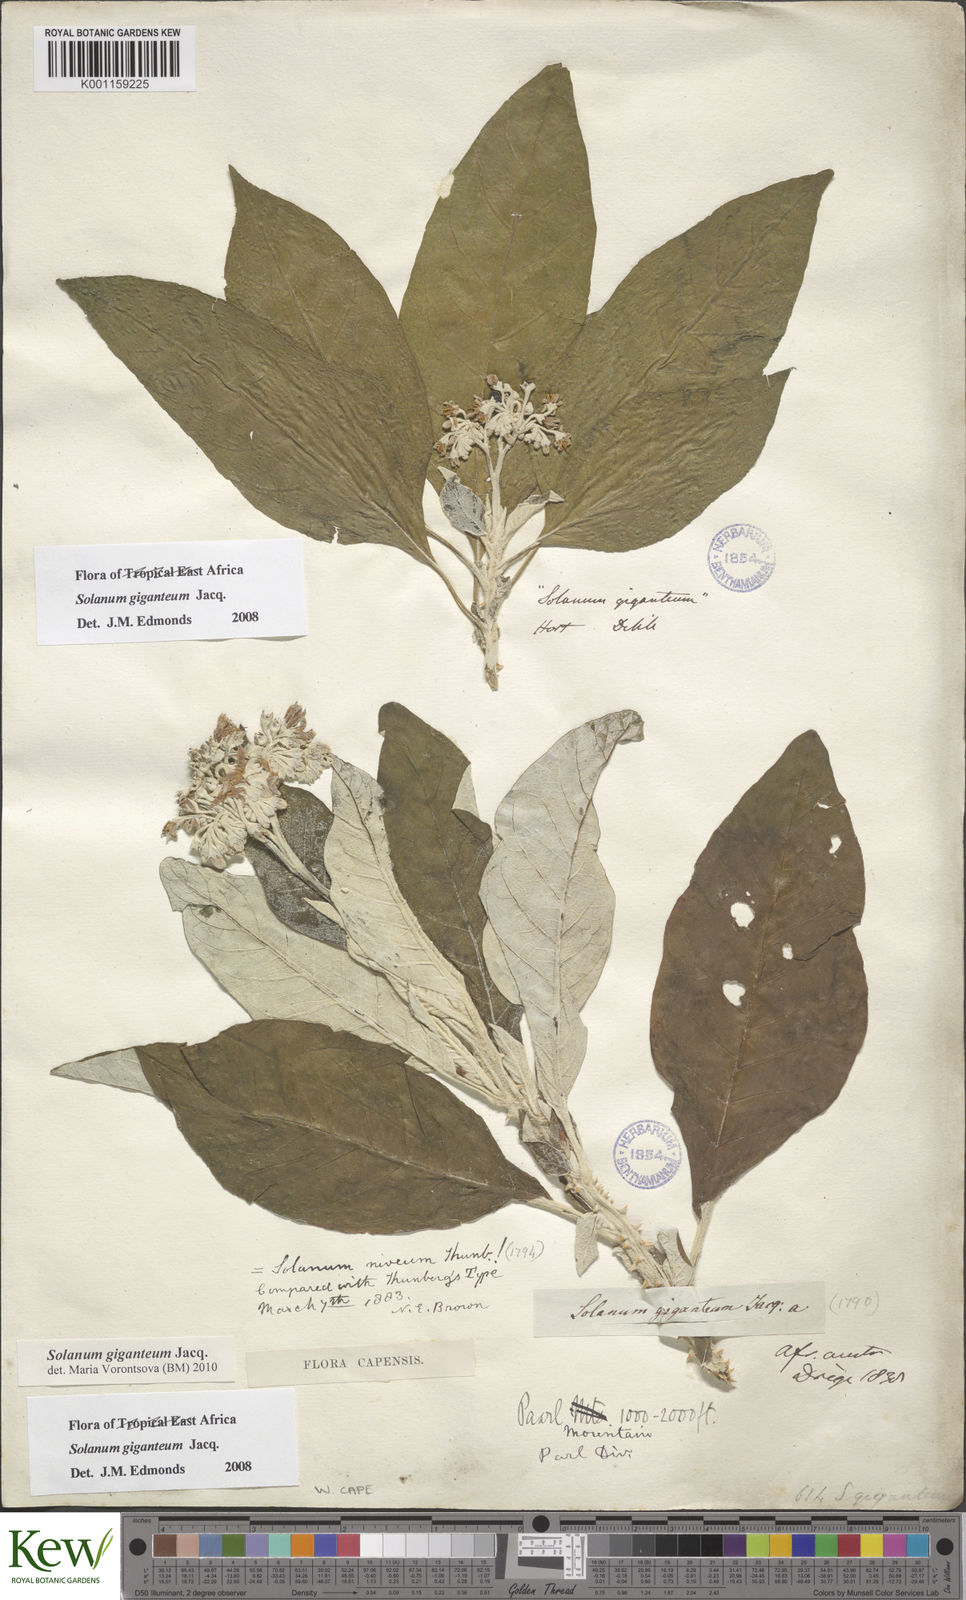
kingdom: Plantae
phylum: Tracheophyta
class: Magnoliopsida
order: Solanales
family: Solanaceae
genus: Solanum
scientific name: Solanum giganteum
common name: Healing-leaf-tree
